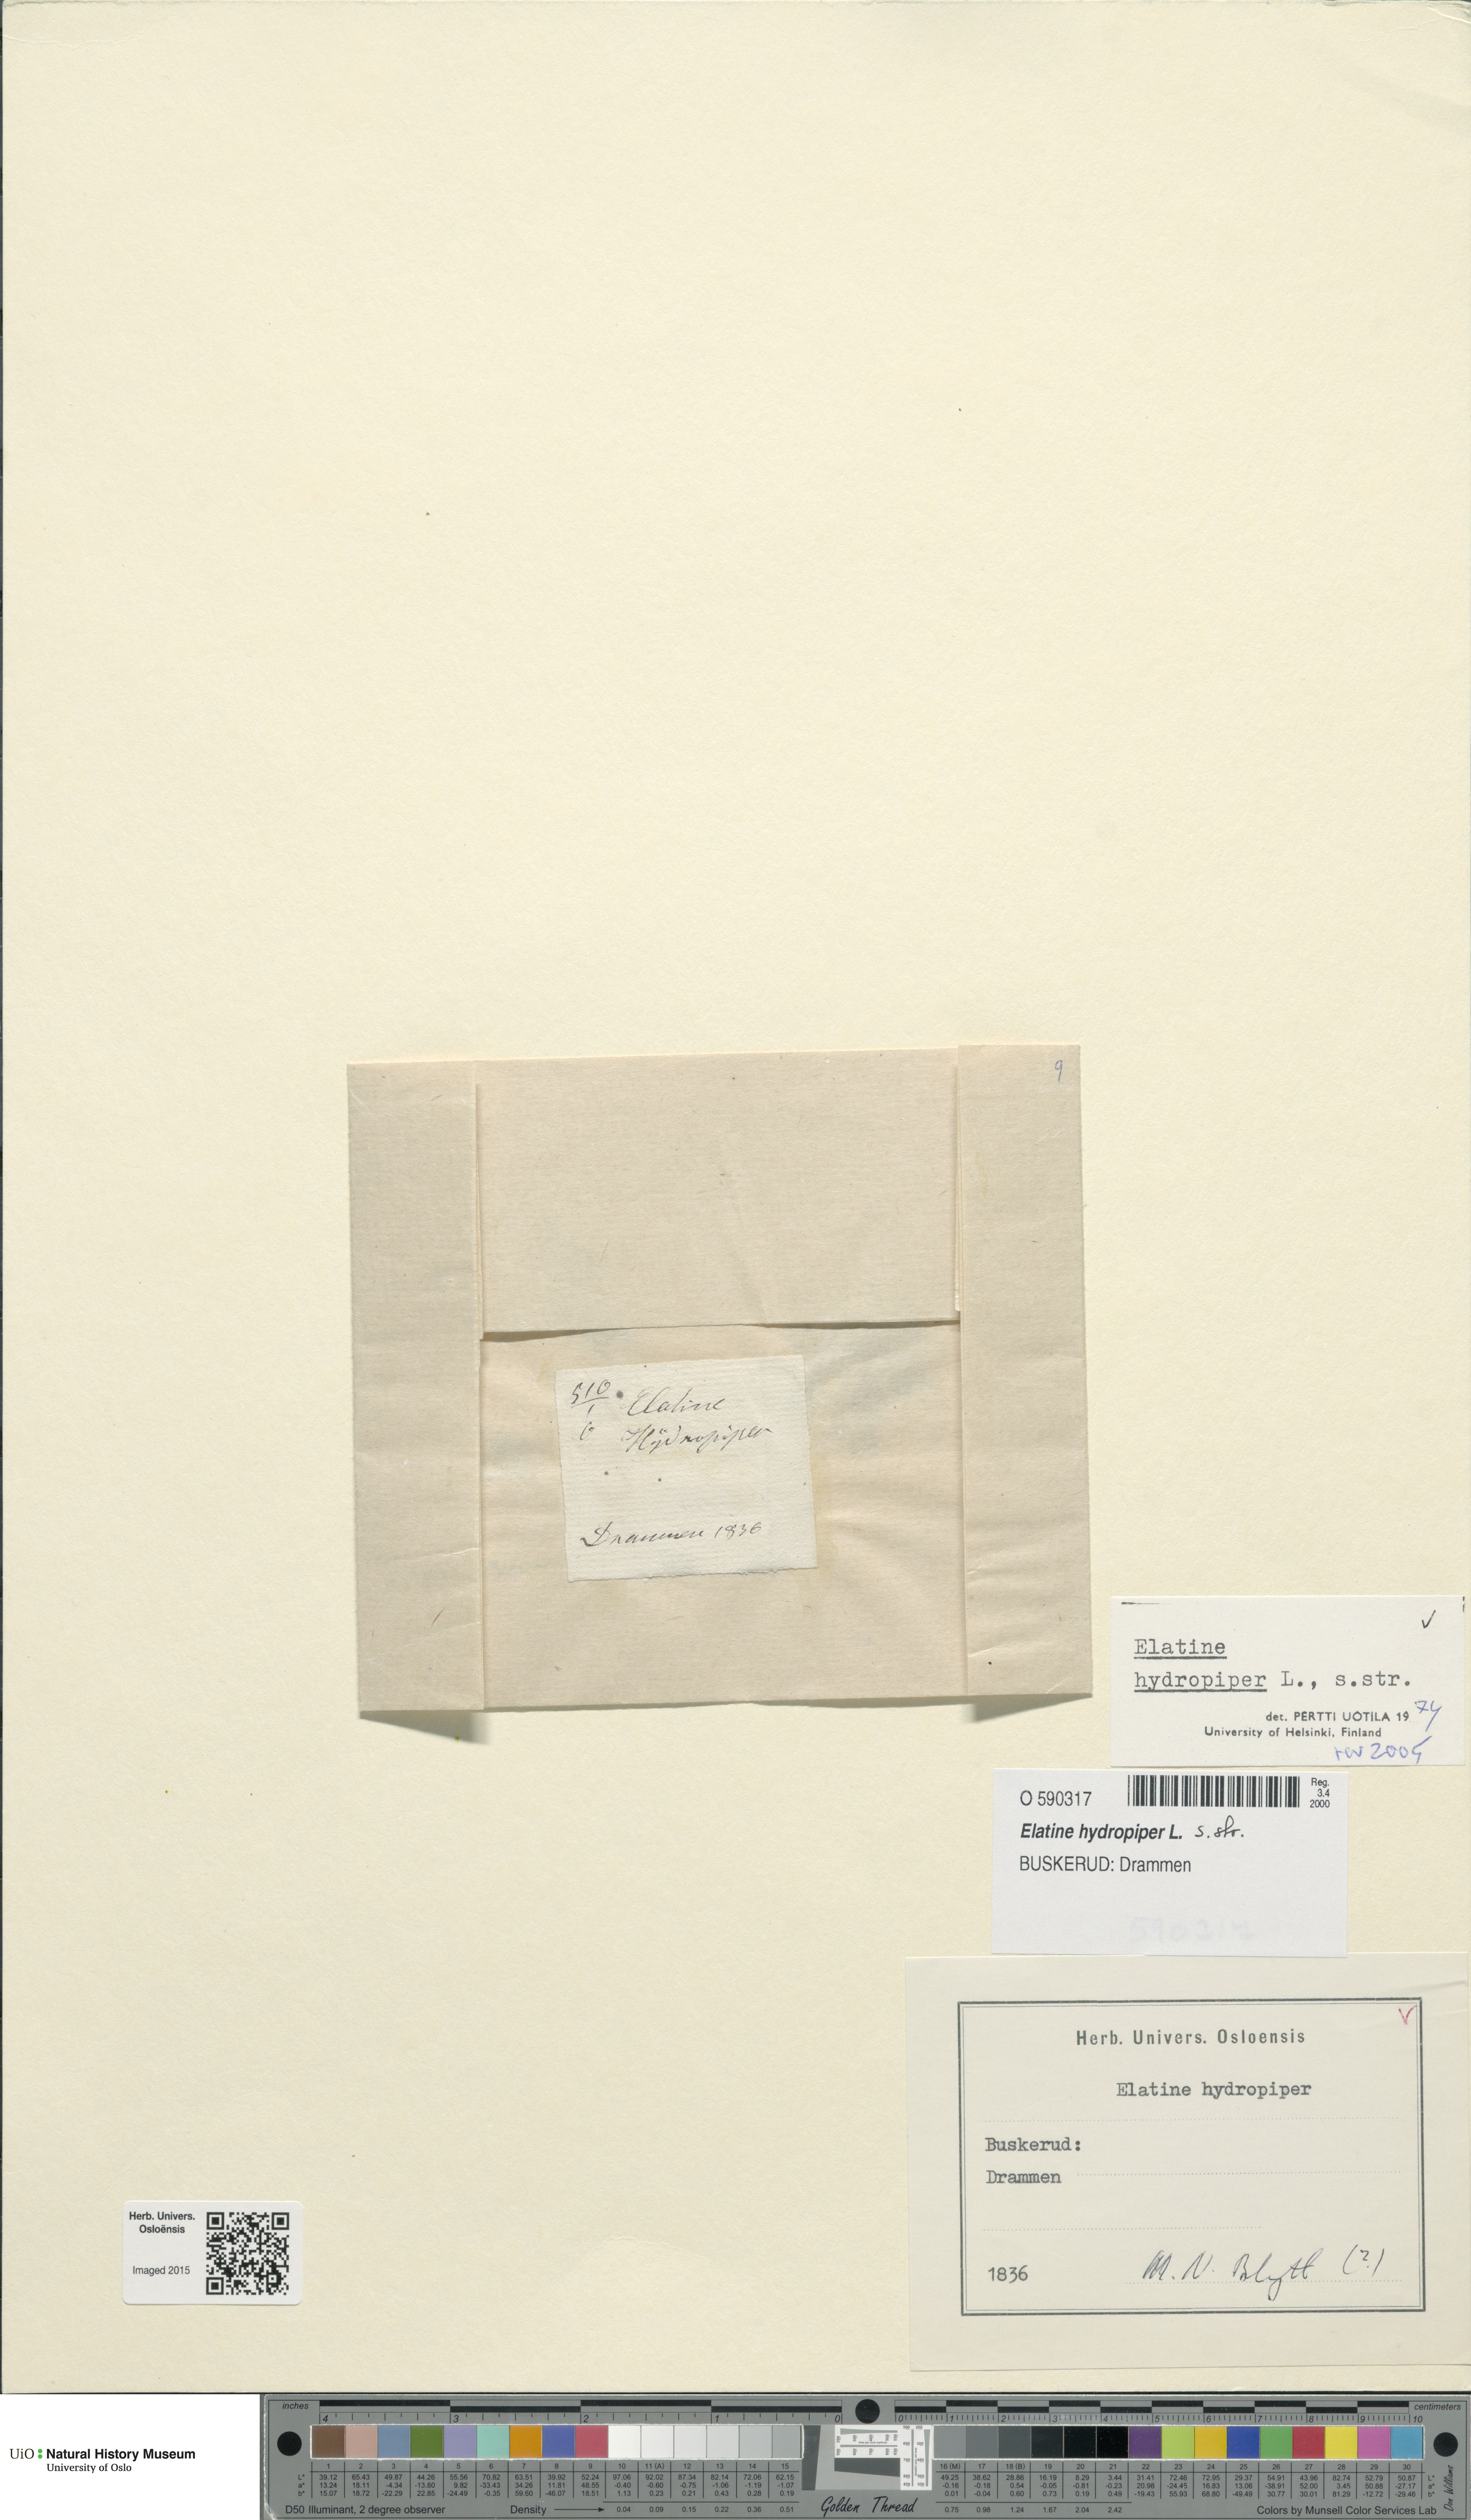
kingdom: Plantae
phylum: Tracheophyta
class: Magnoliopsida
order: Malpighiales
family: Elatinaceae
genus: Elatine
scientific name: Elatine hydropiper
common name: Eight-stamened waterwort
